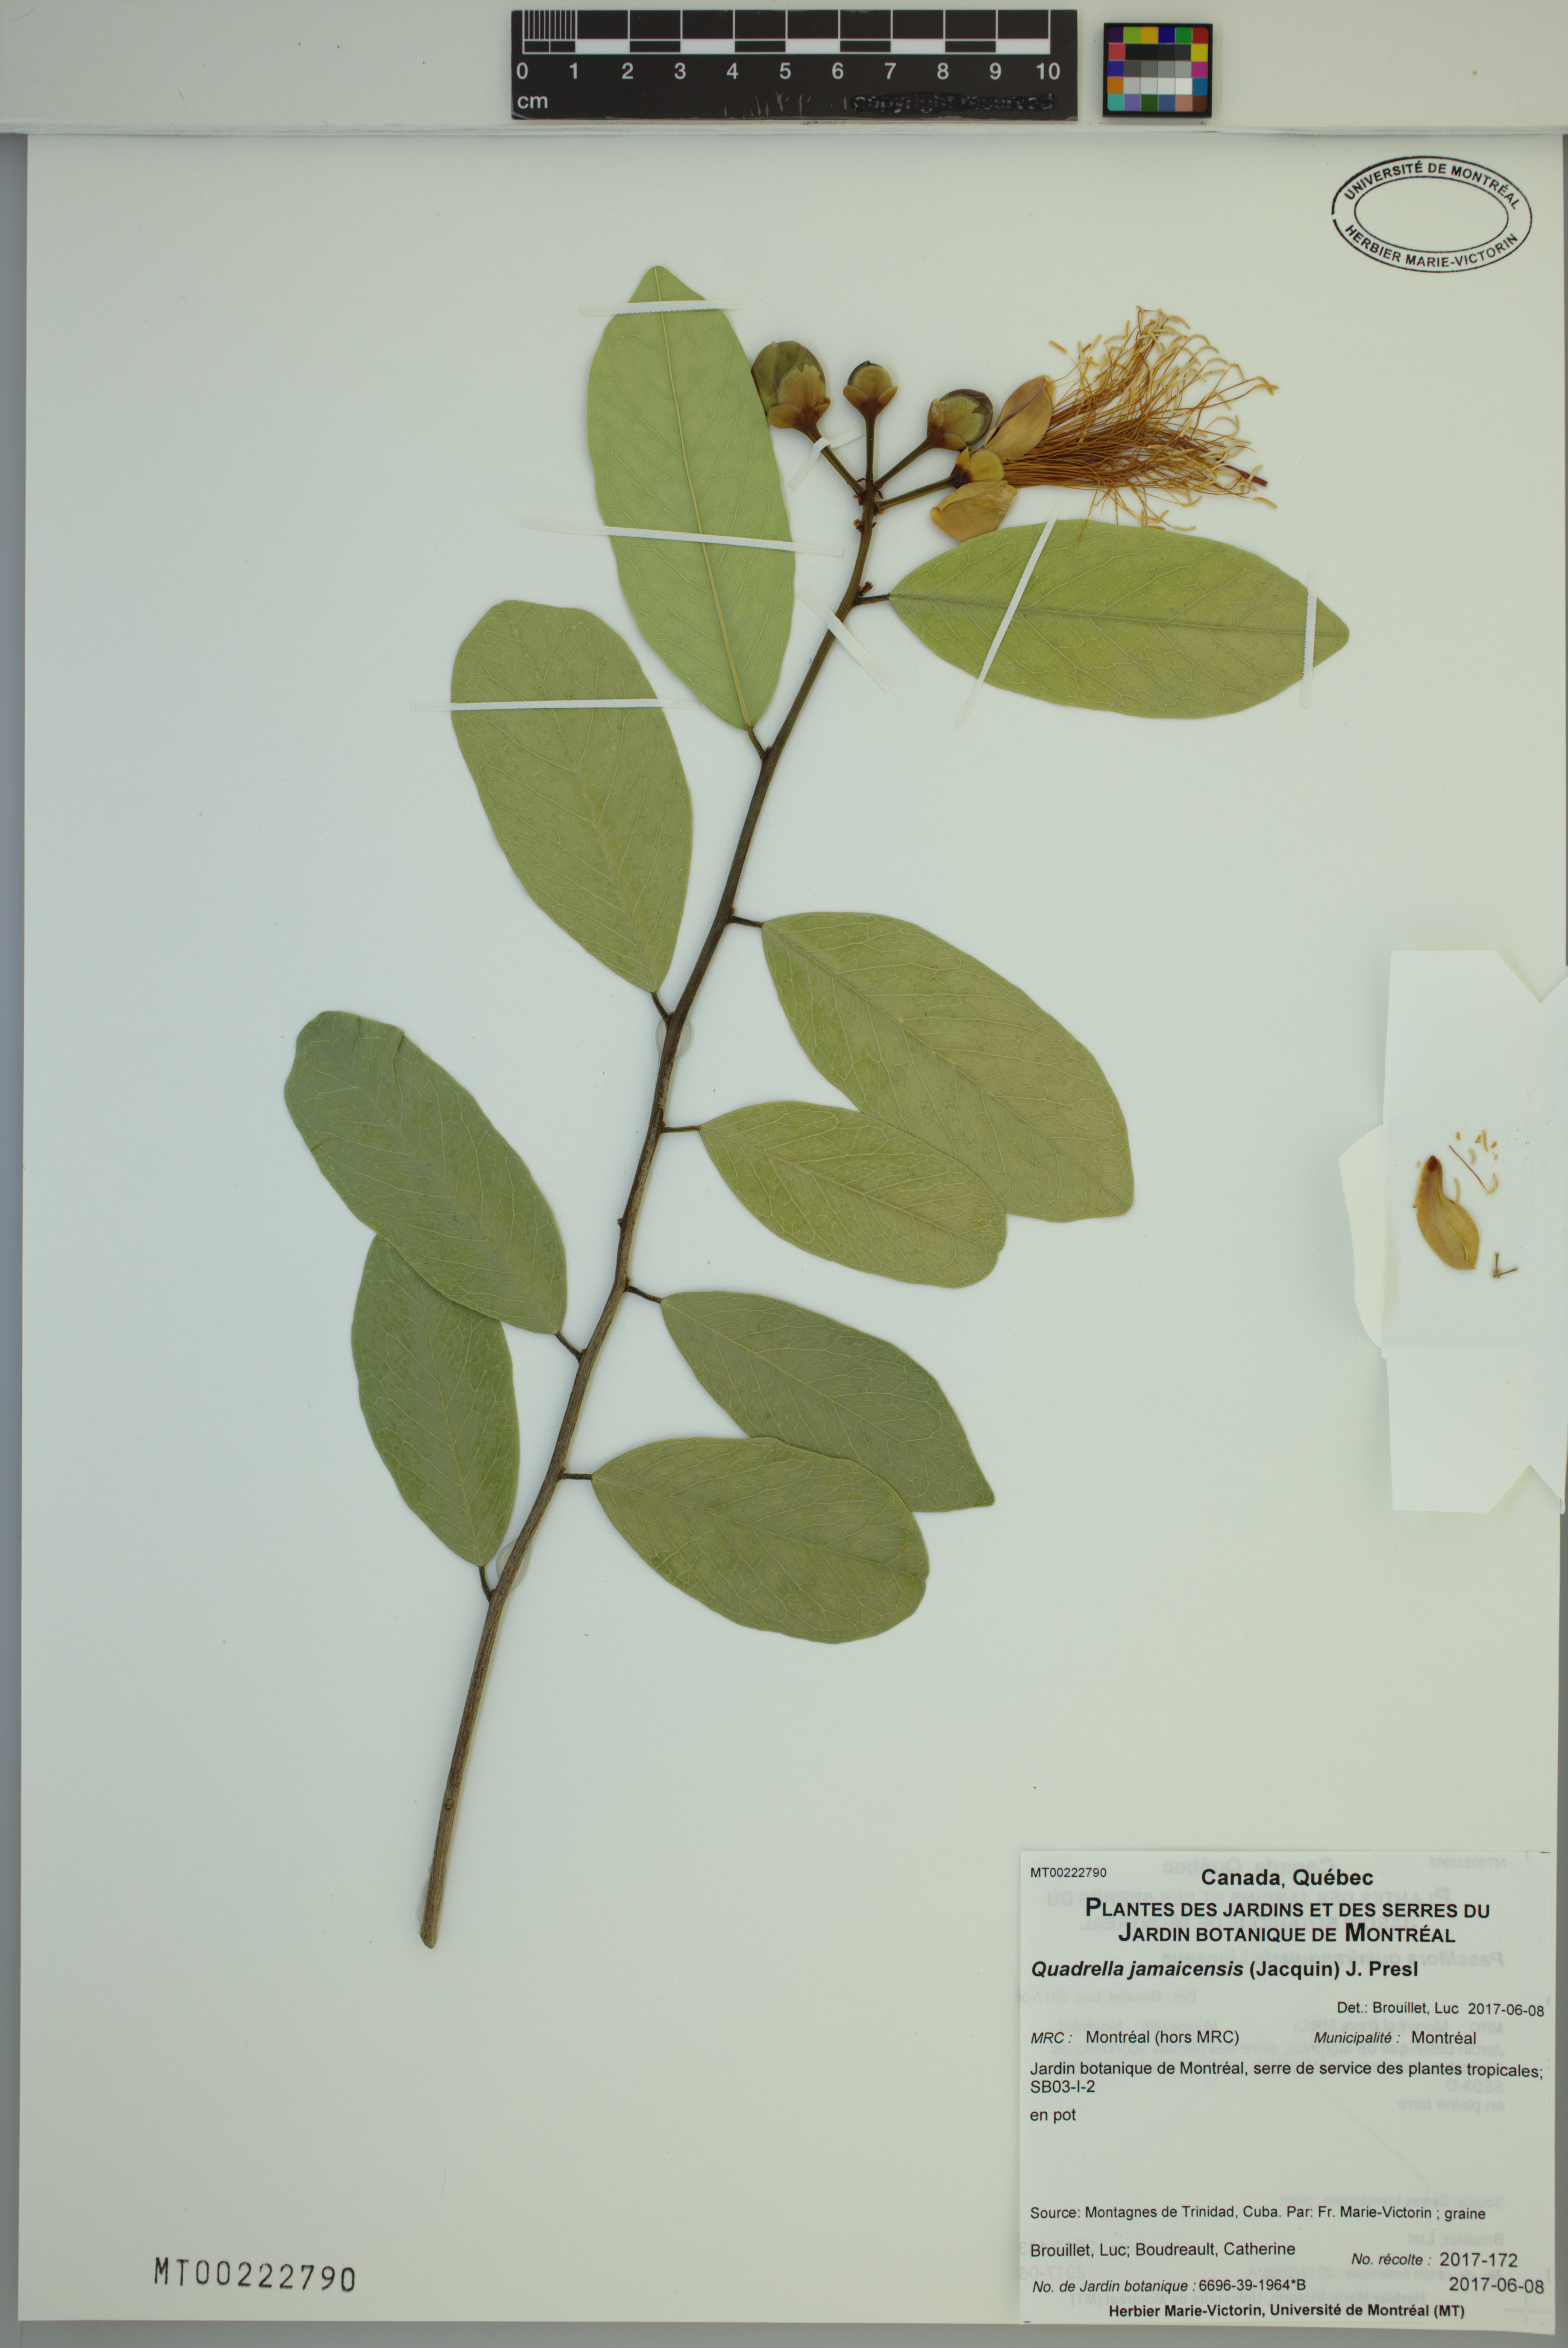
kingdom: Plantae
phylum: Tracheophyta
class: Magnoliopsida
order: Brassicales
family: Capparaceae
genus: Quadrella
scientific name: Quadrella cynophallophora
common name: Black willow
